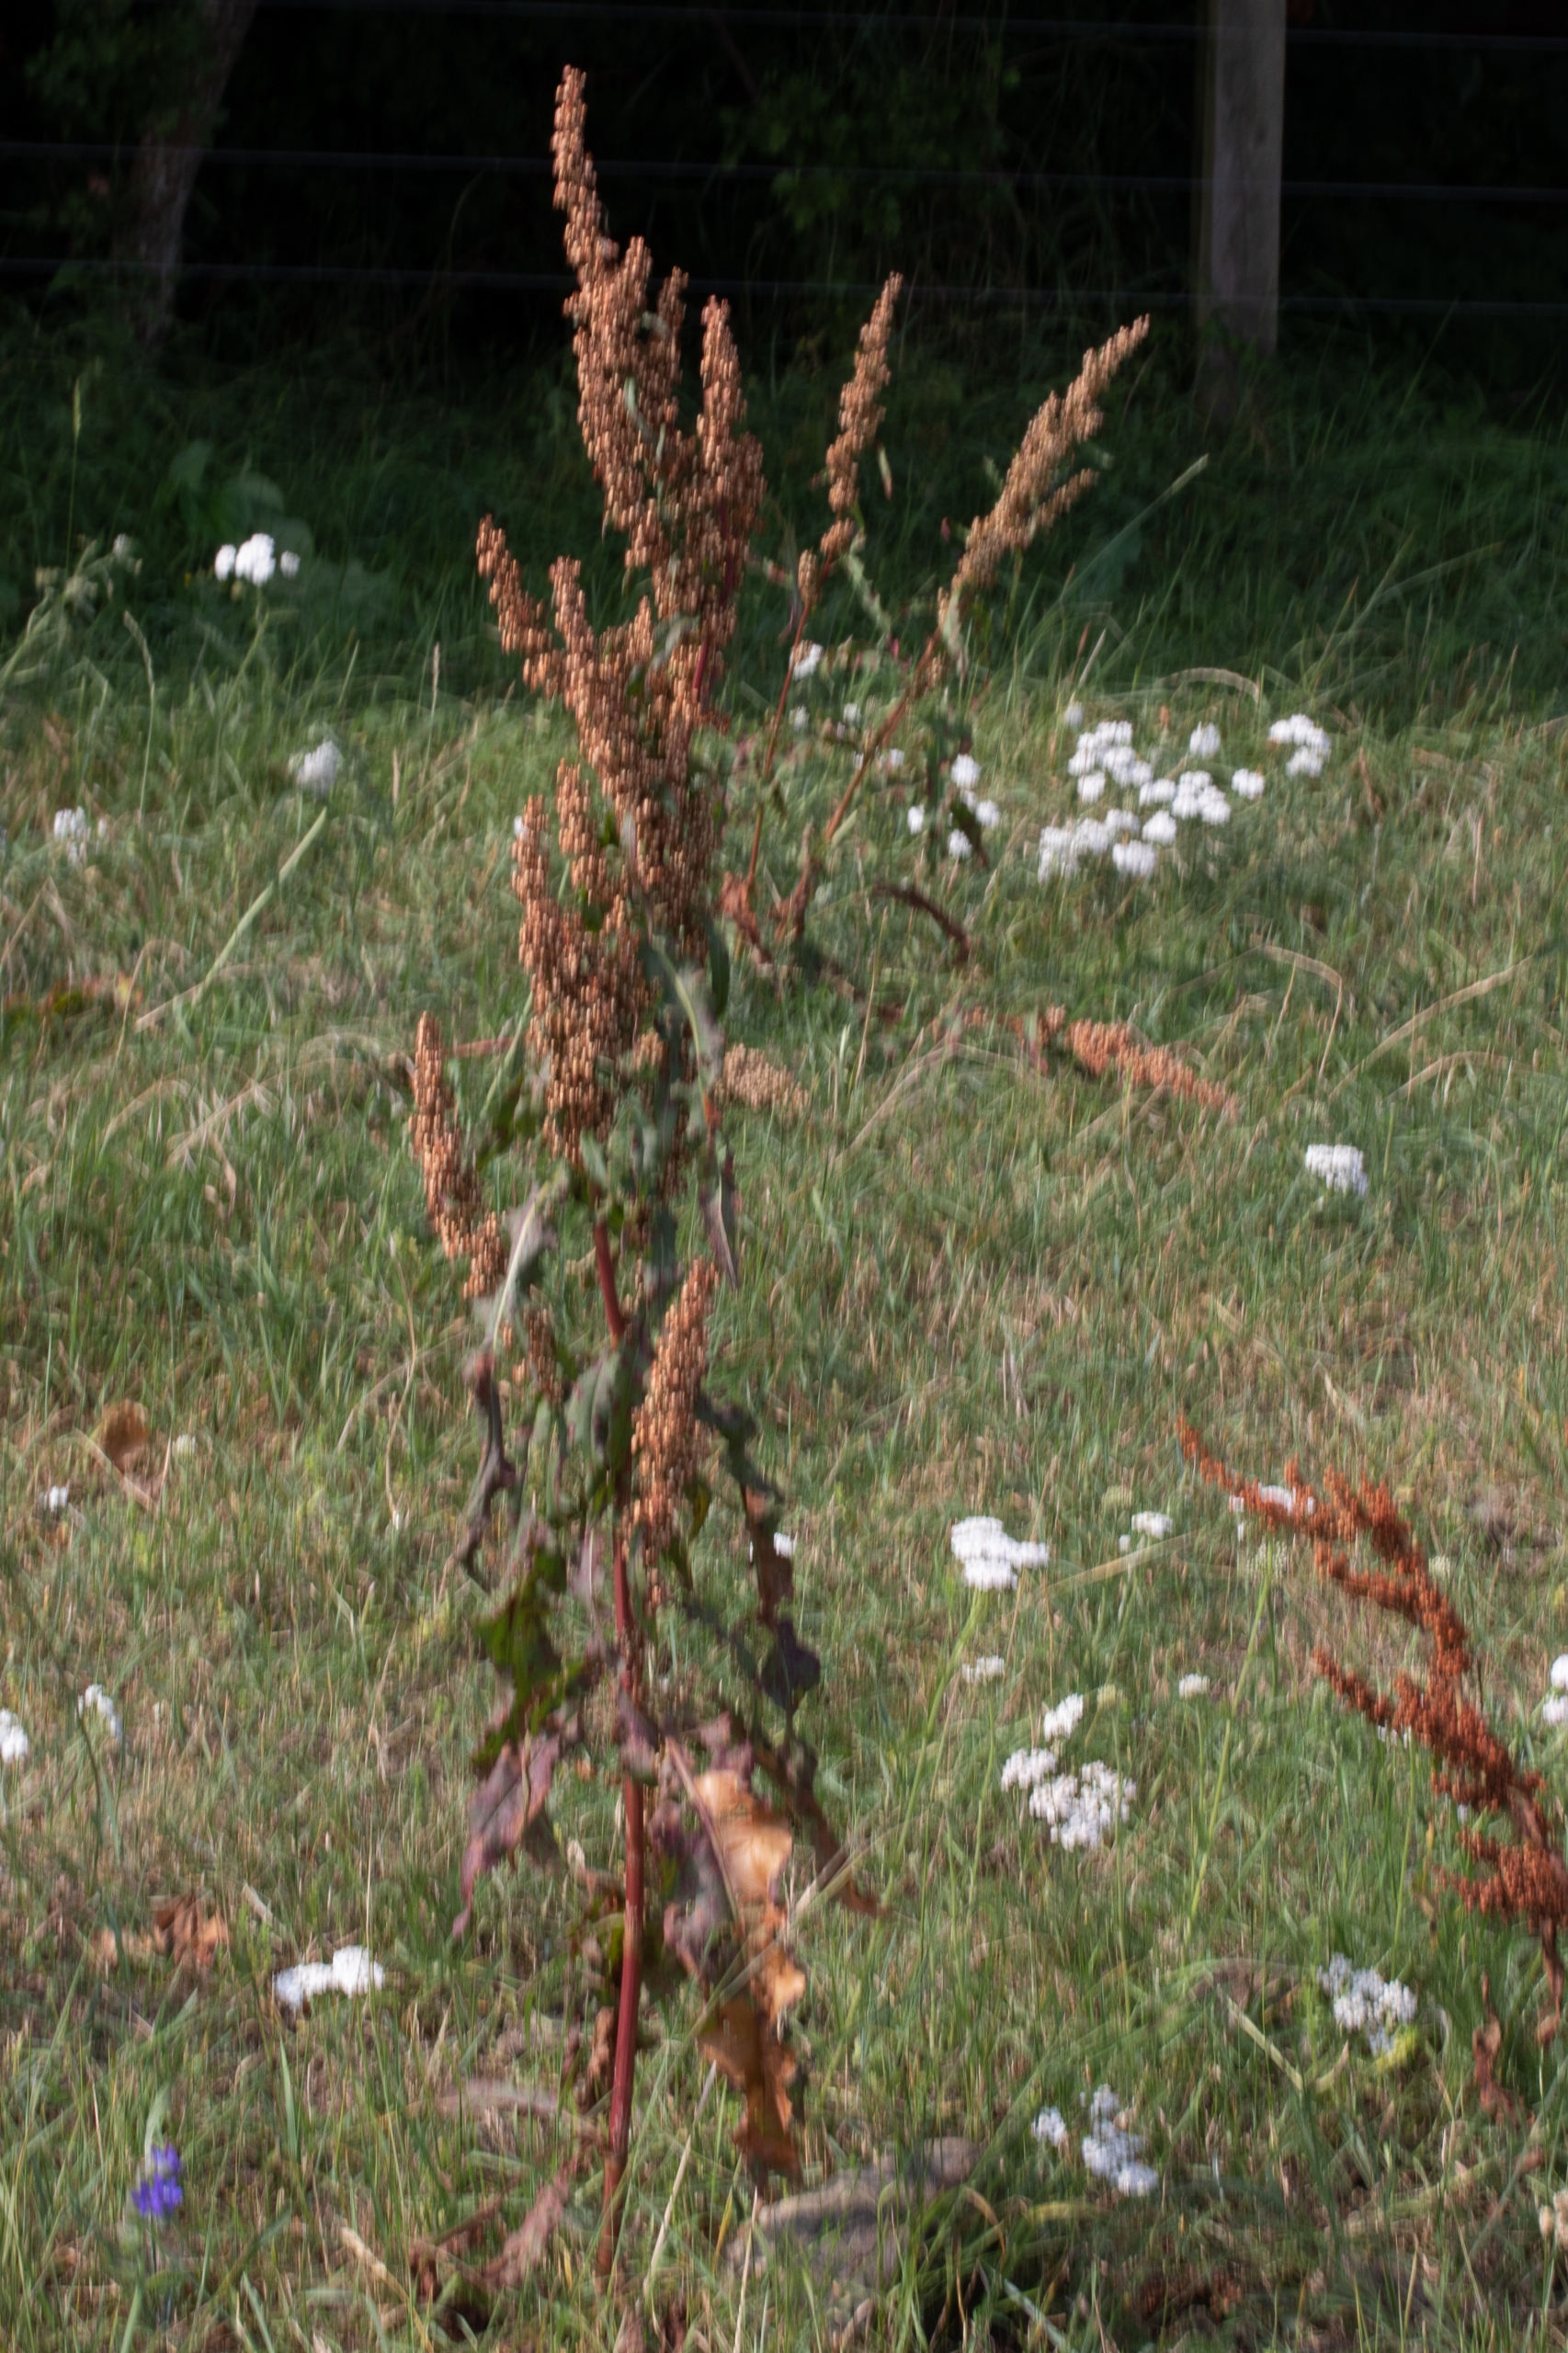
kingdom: Plantae
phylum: Tracheophyta
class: Magnoliopsida
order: Caryophyllales
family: Polygonaceae
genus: Rumex
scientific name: Rumex crispus
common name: Kruset skræppe
